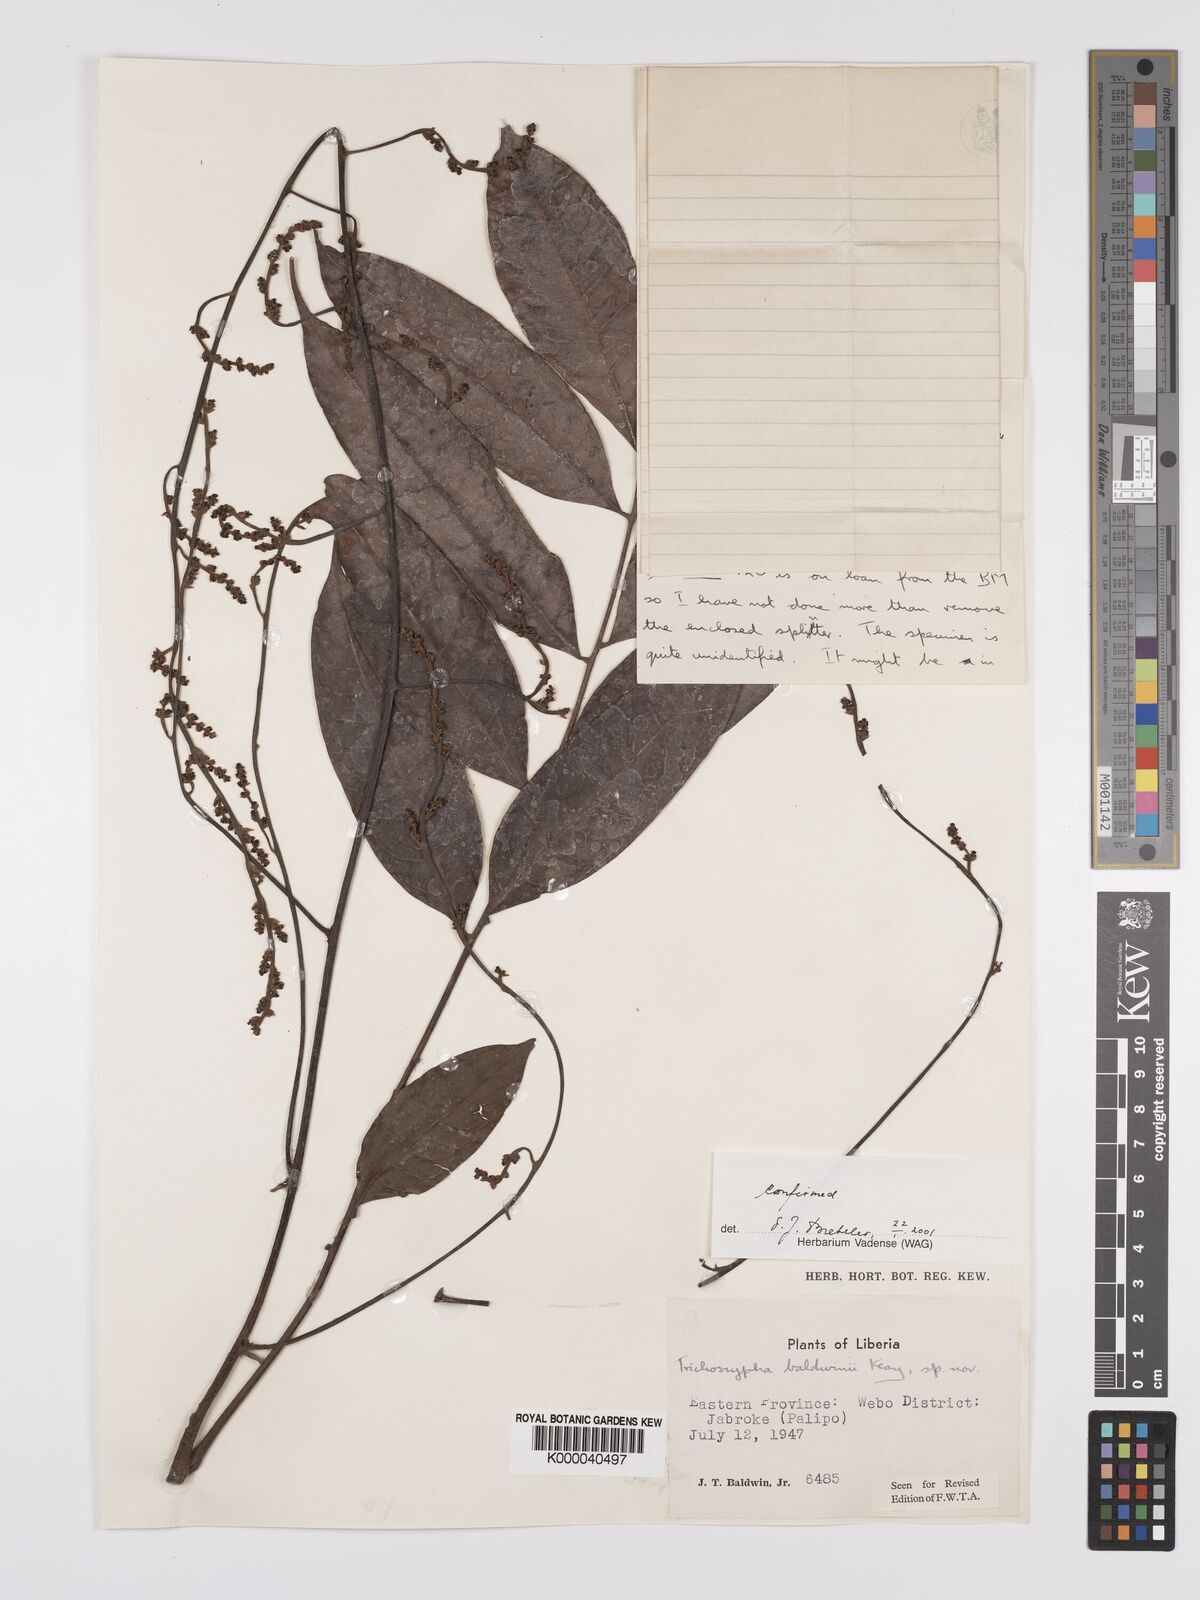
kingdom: Plantae
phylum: Tracheophyta
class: Magnoliopsida
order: Sapindales
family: Anacardiaceae
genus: Trichoscypha
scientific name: Trichoscypha baldwinii
